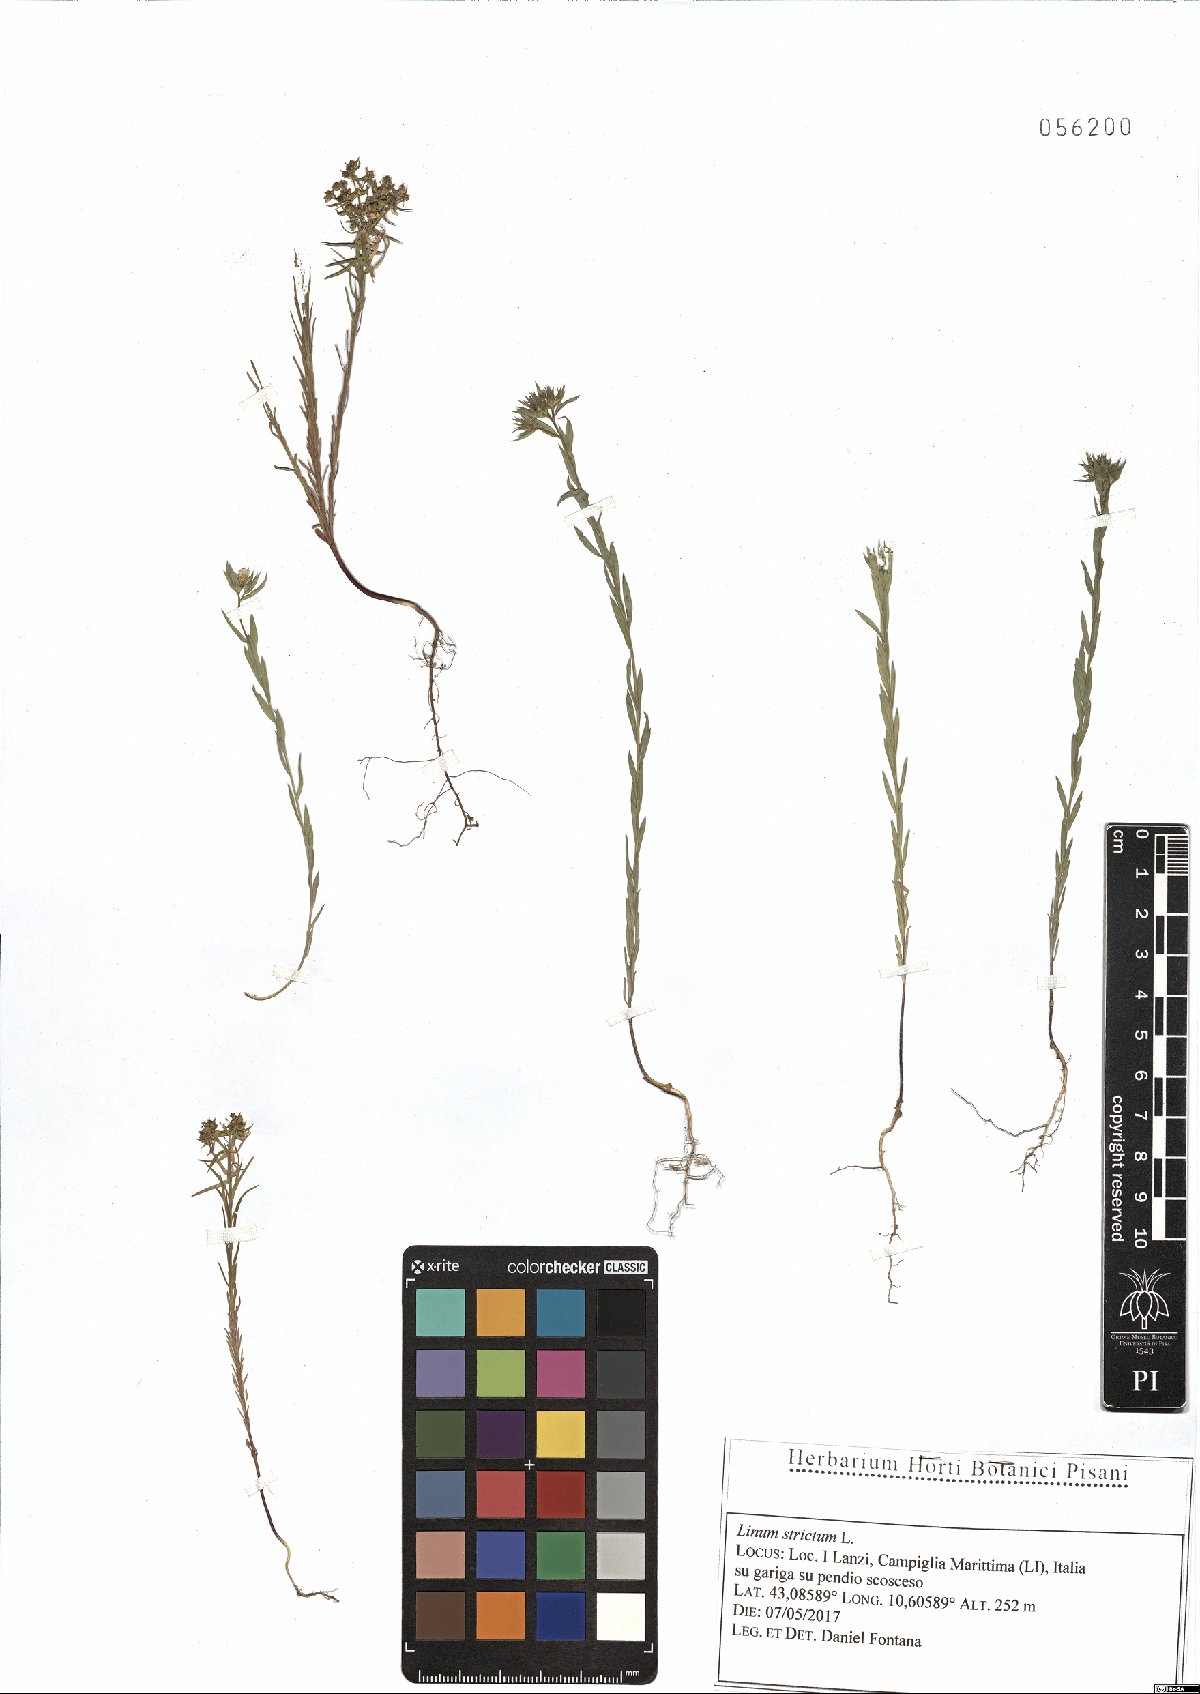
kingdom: Plantae
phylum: Tracheophyta
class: Magnoliopsida
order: Malpighiales
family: Linaceae
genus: Linum
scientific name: Linum strictum
